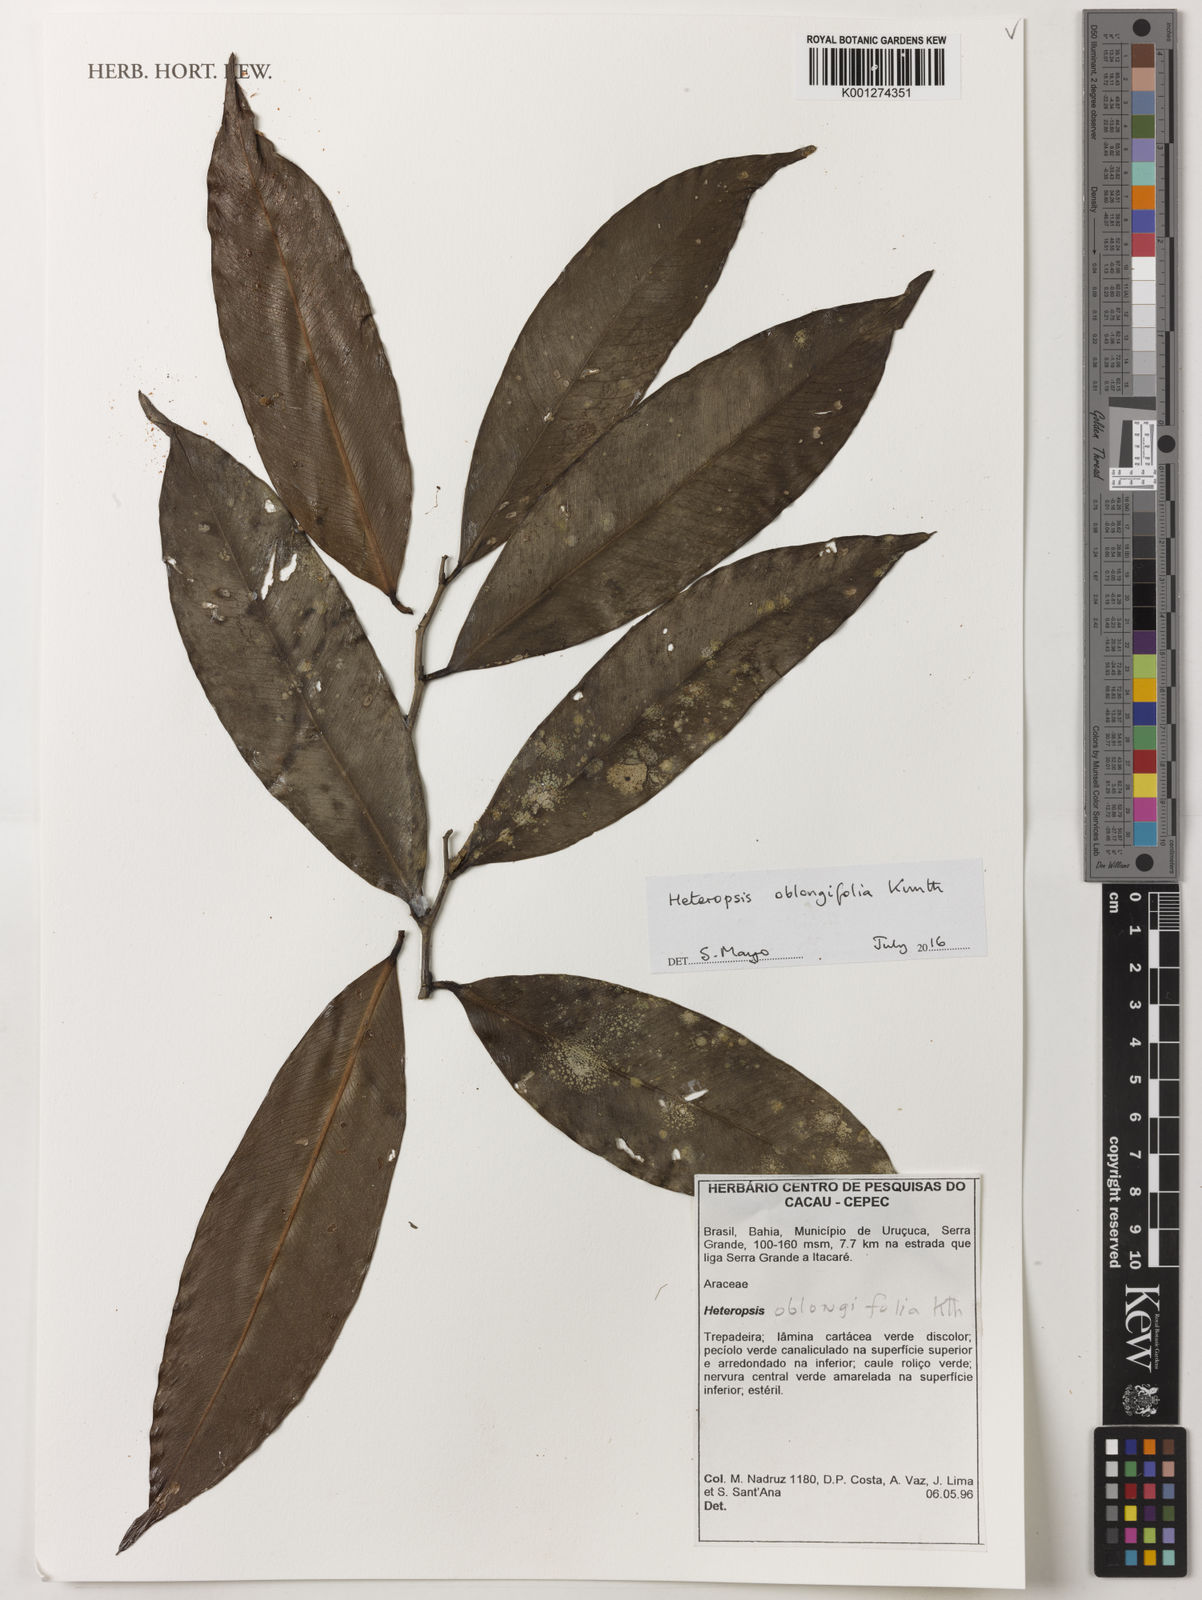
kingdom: Plantae
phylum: Tracheophyta
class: Liliopsida
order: Alismatales
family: Araceae
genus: Heteropsis
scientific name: Heteropsis oblongifolia
